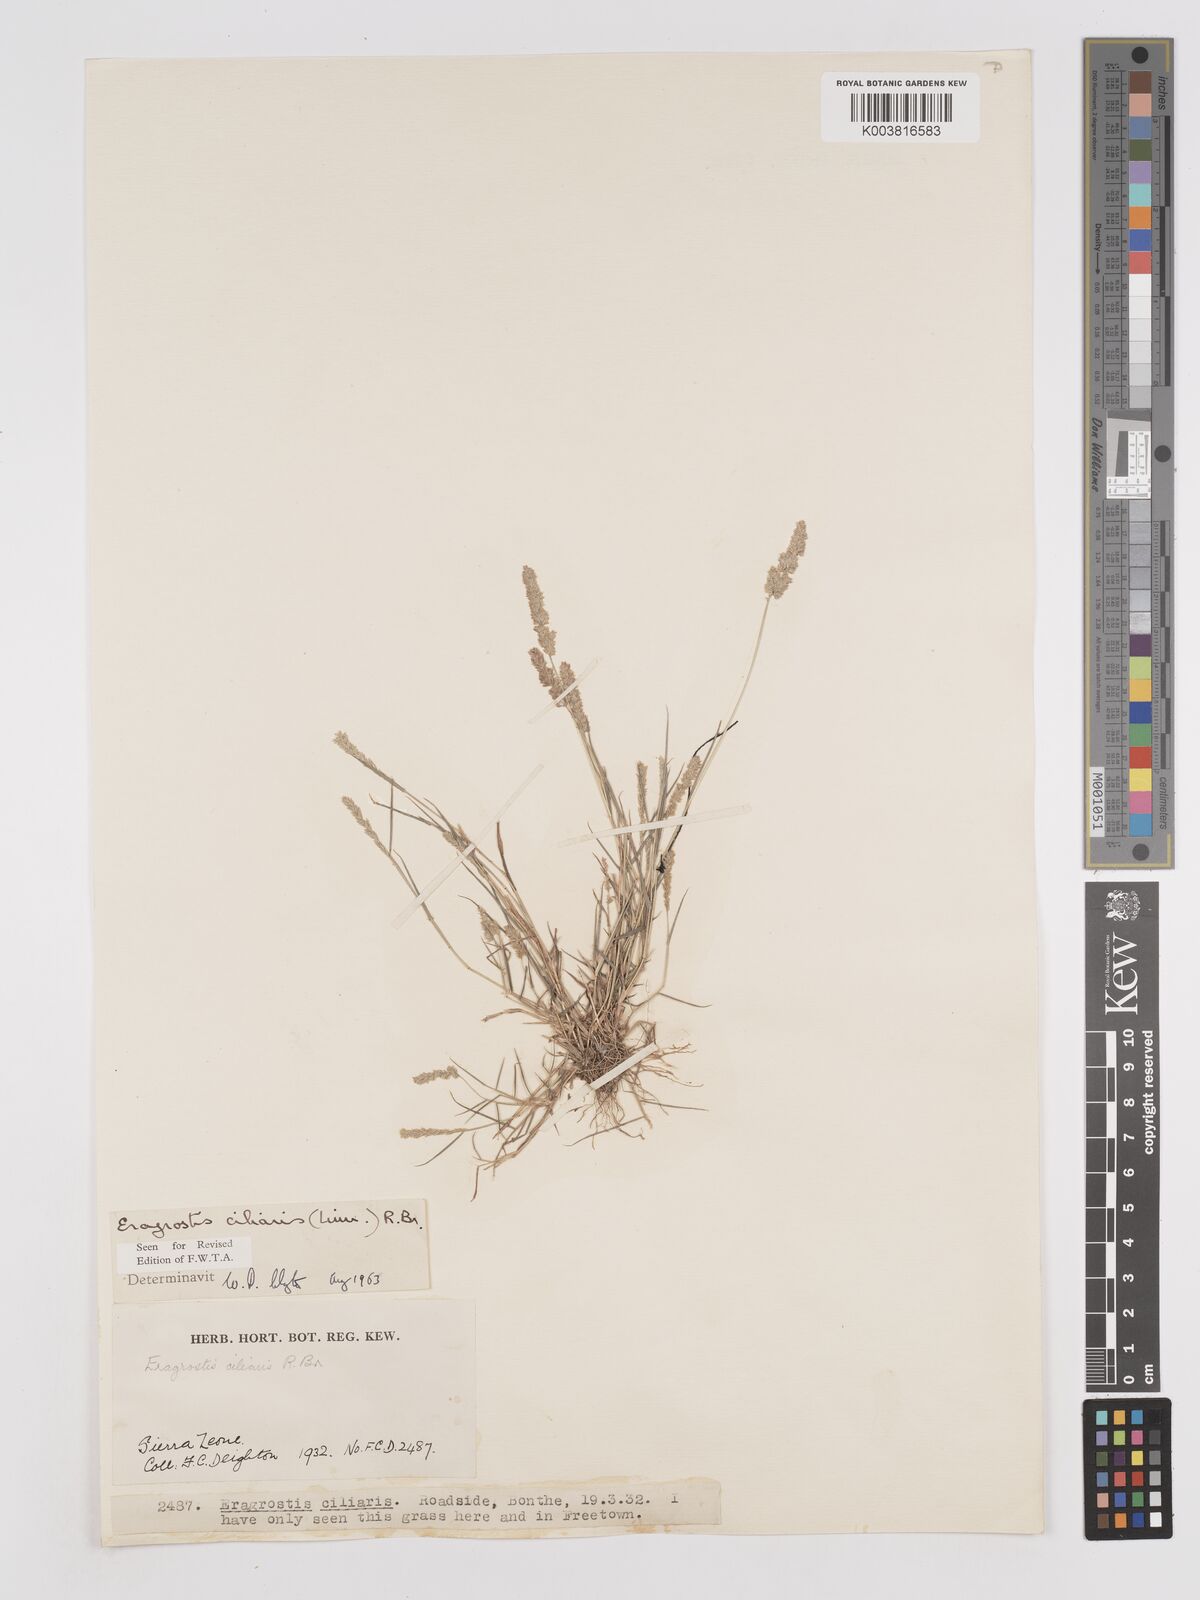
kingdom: Plantae
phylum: Tracheophyta
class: Liliopsida
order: Poales
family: Poaceae
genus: Eragrostis
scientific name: Eragrostis ciliaris
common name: Gophertail lovegrass
